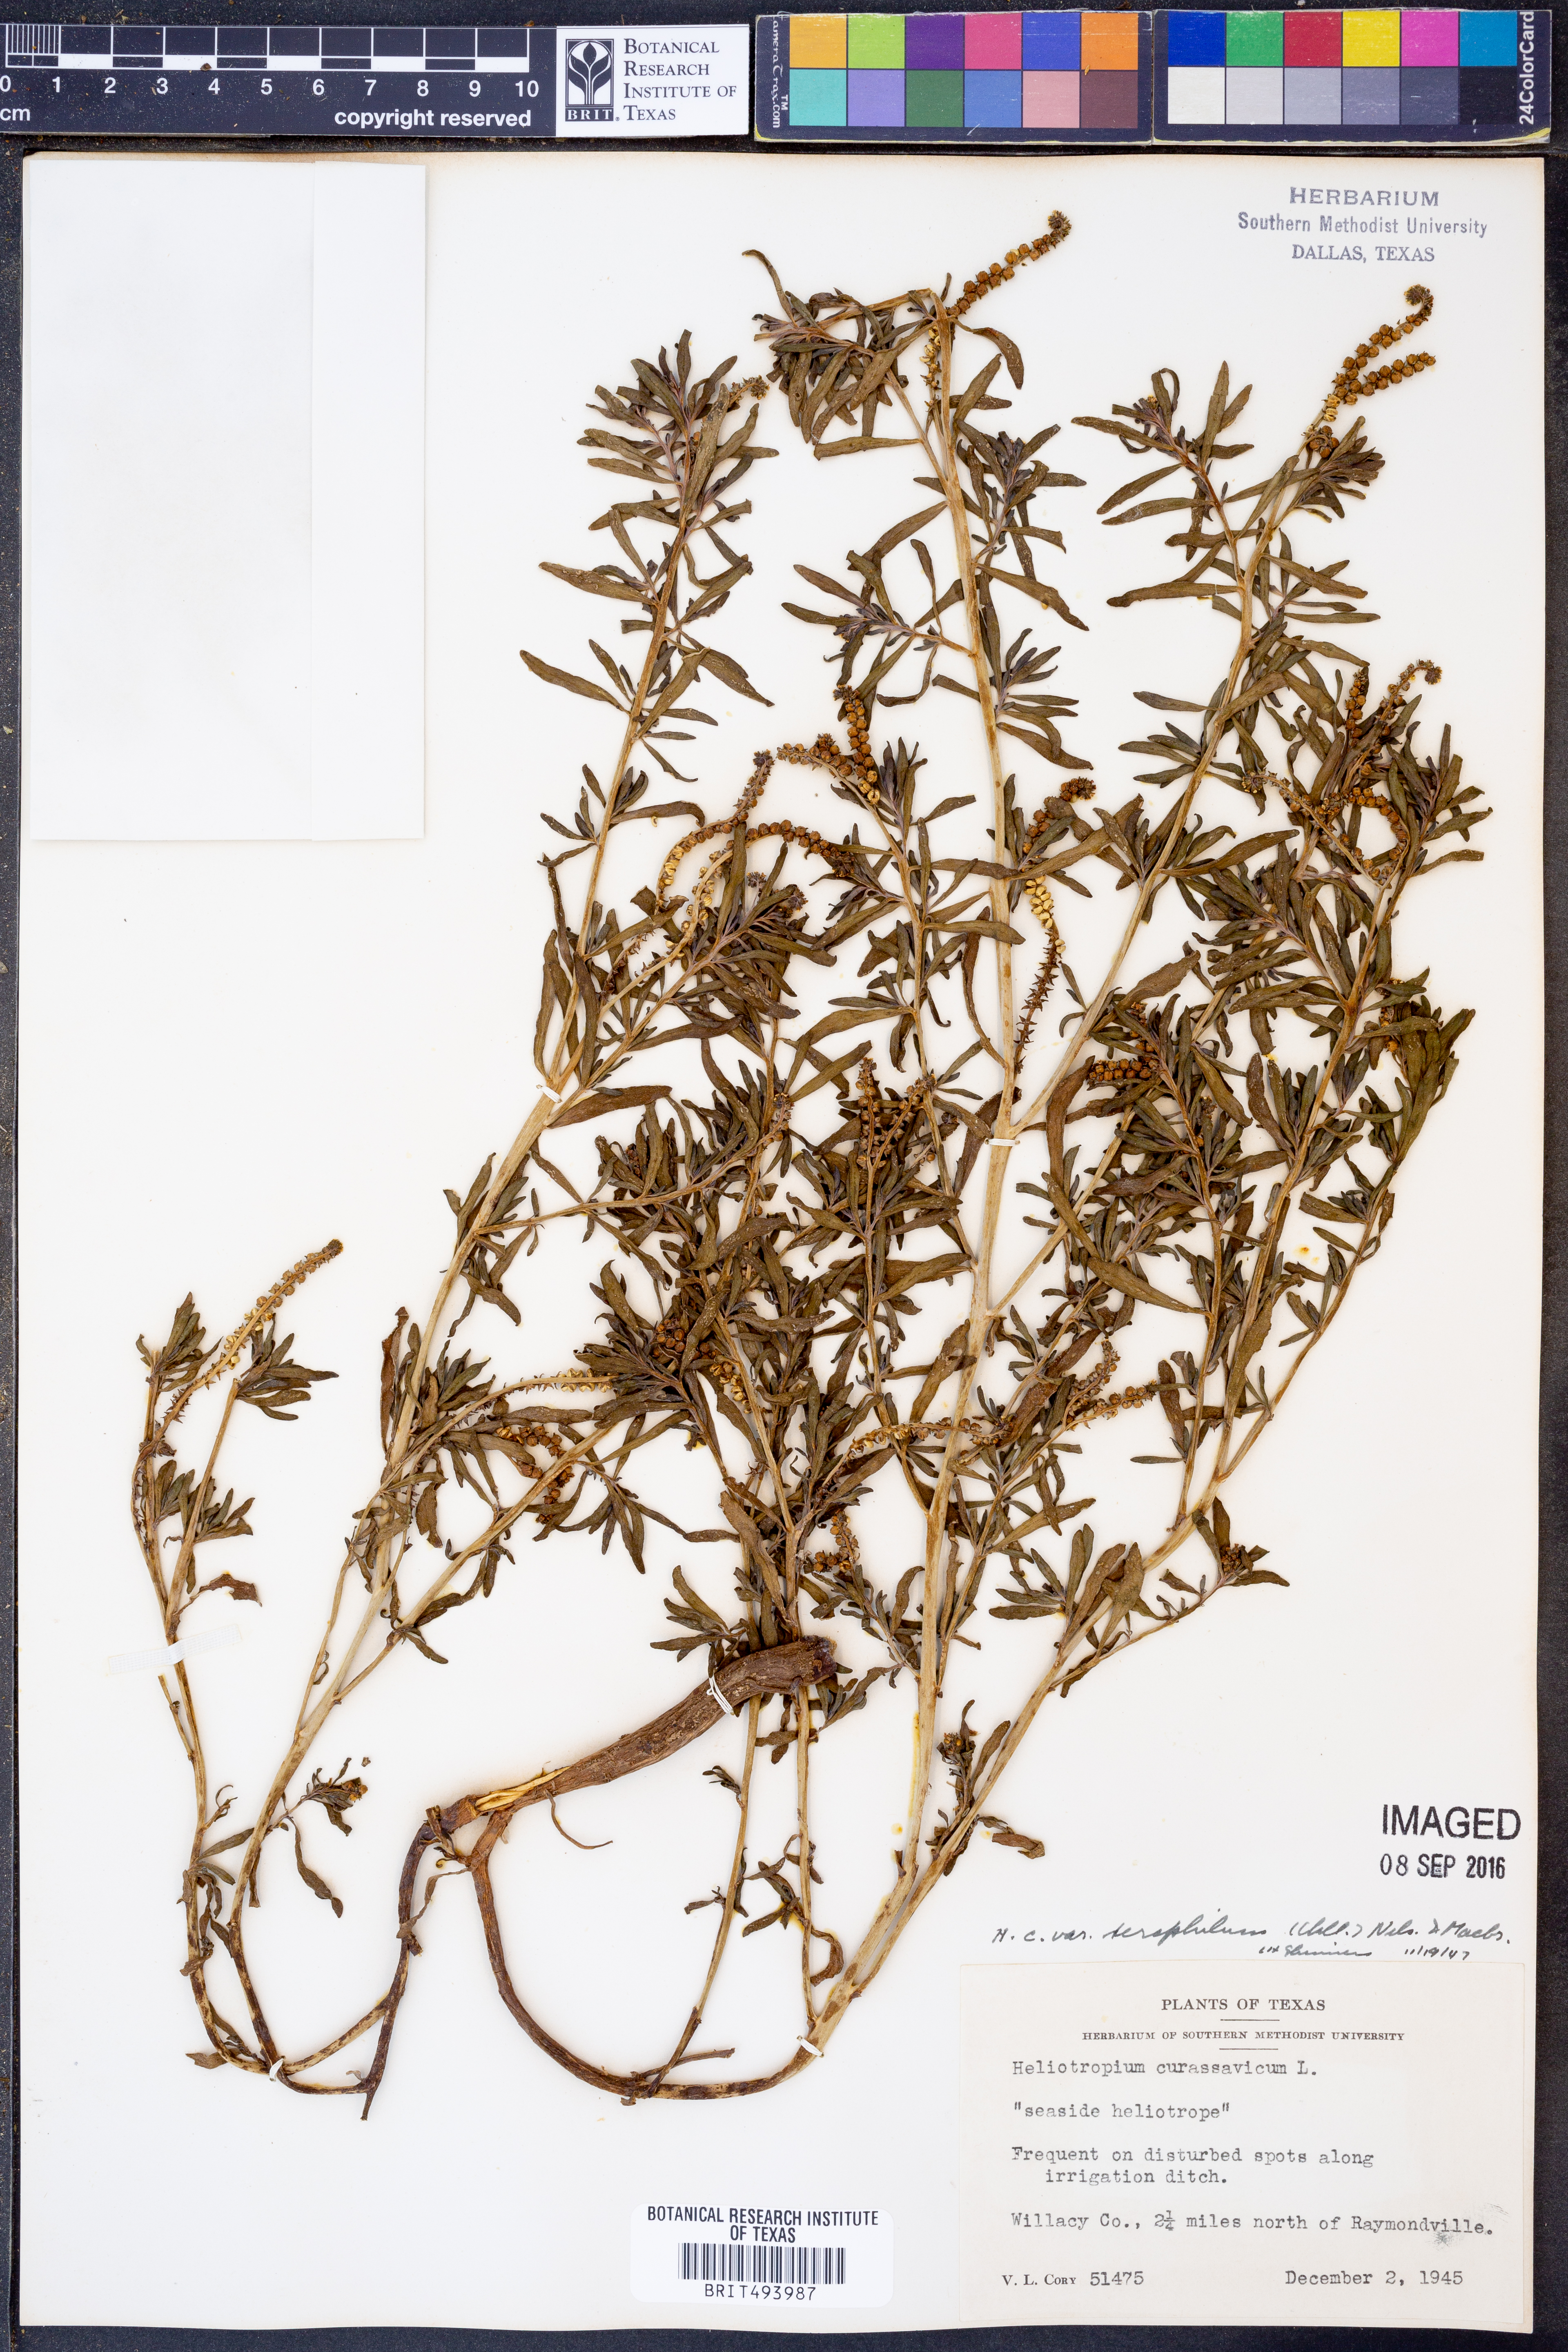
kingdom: Plantae
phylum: Tracheophyta
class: Magnoliopsida
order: Boraginales
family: Heliotropiaceae
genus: Heliotropium
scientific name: Heliotropium curassavicum
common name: Seaside heliotrope
